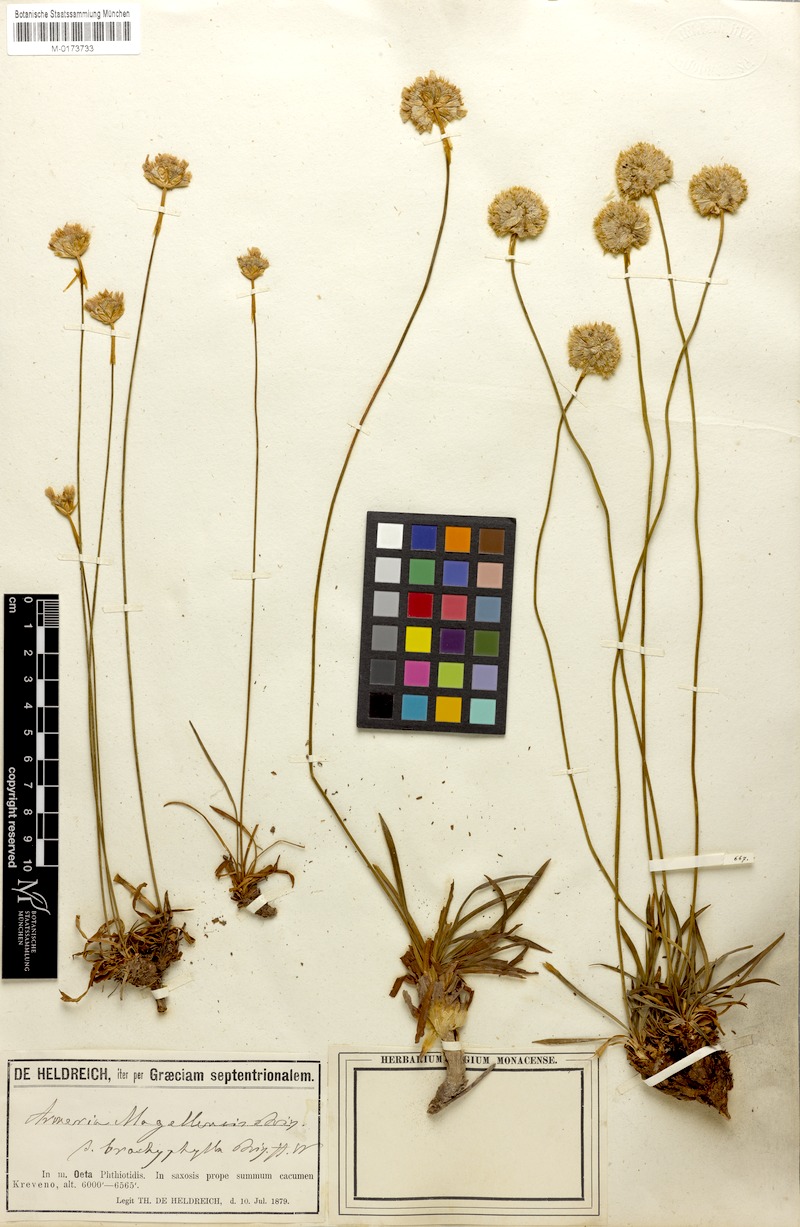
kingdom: Plantae
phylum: Tracheophyta
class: Magnoliopsida
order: Caryophyllales
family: Plumbaginaceae
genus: Armeria
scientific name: Armeria canescens
